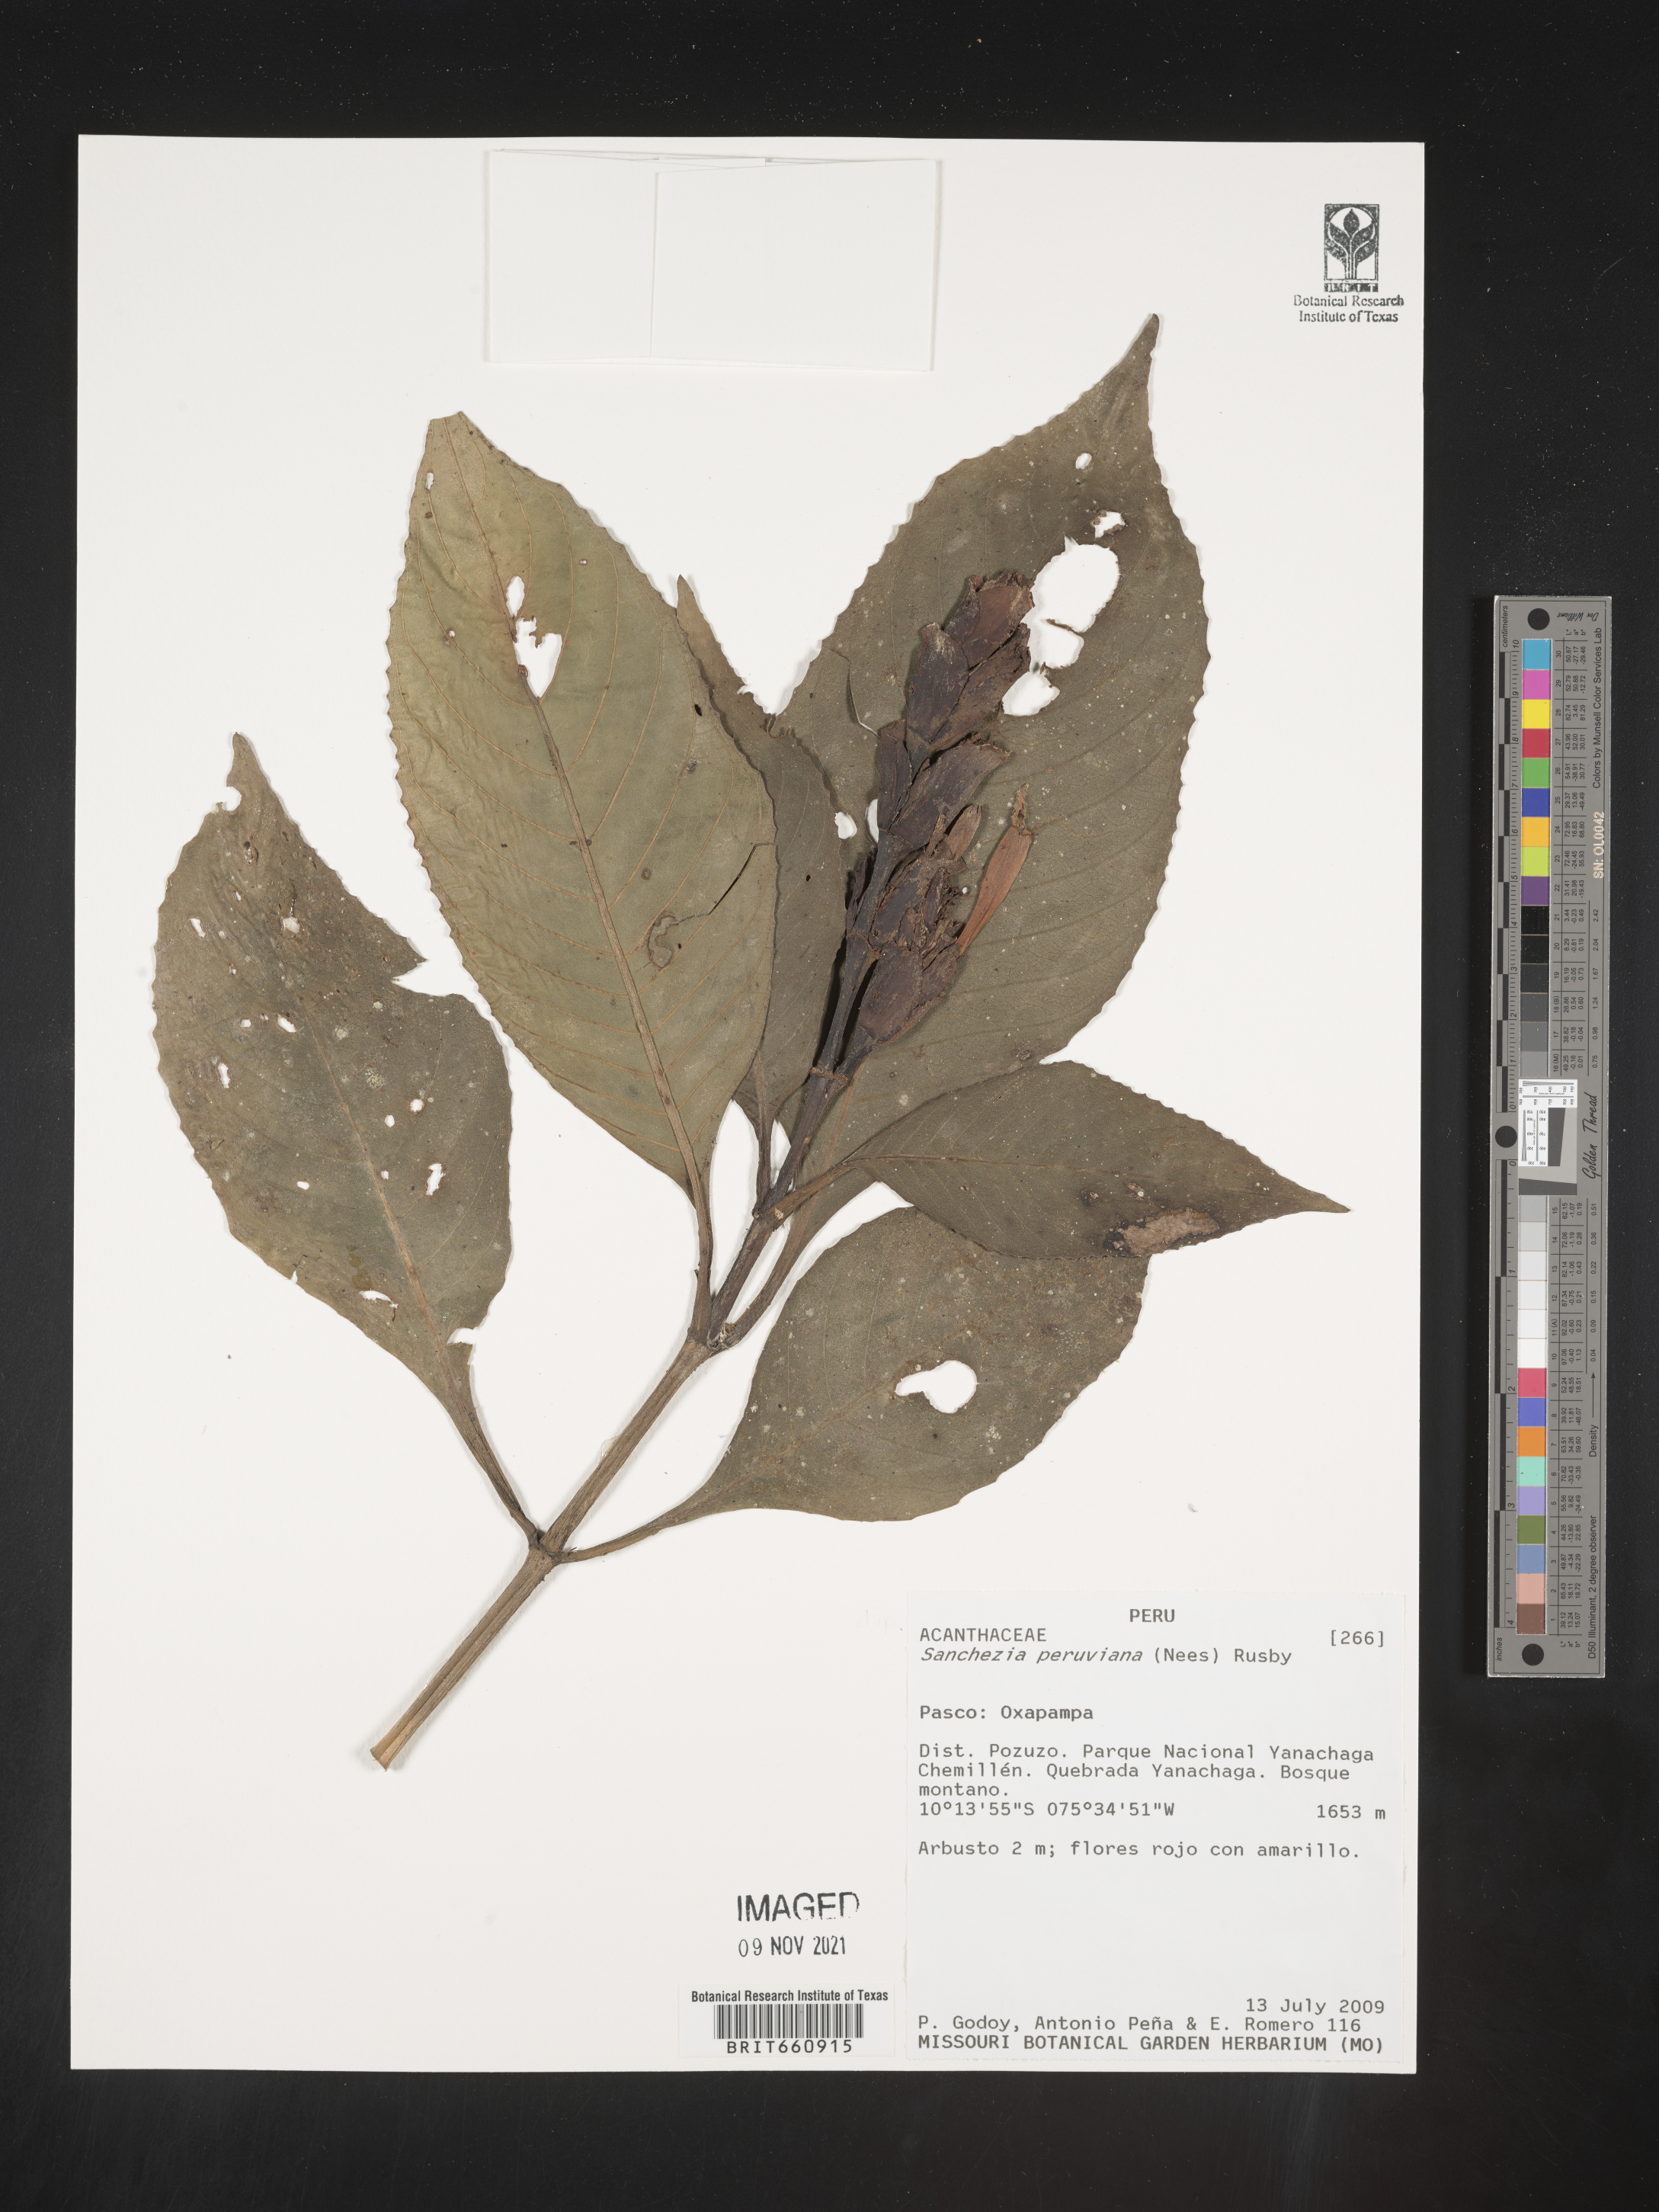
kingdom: Plantae
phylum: Tracheophyta
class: Magnoliopsida
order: Lamiales
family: Acanthaceae
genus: Sanchezia
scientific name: Sanchezia
